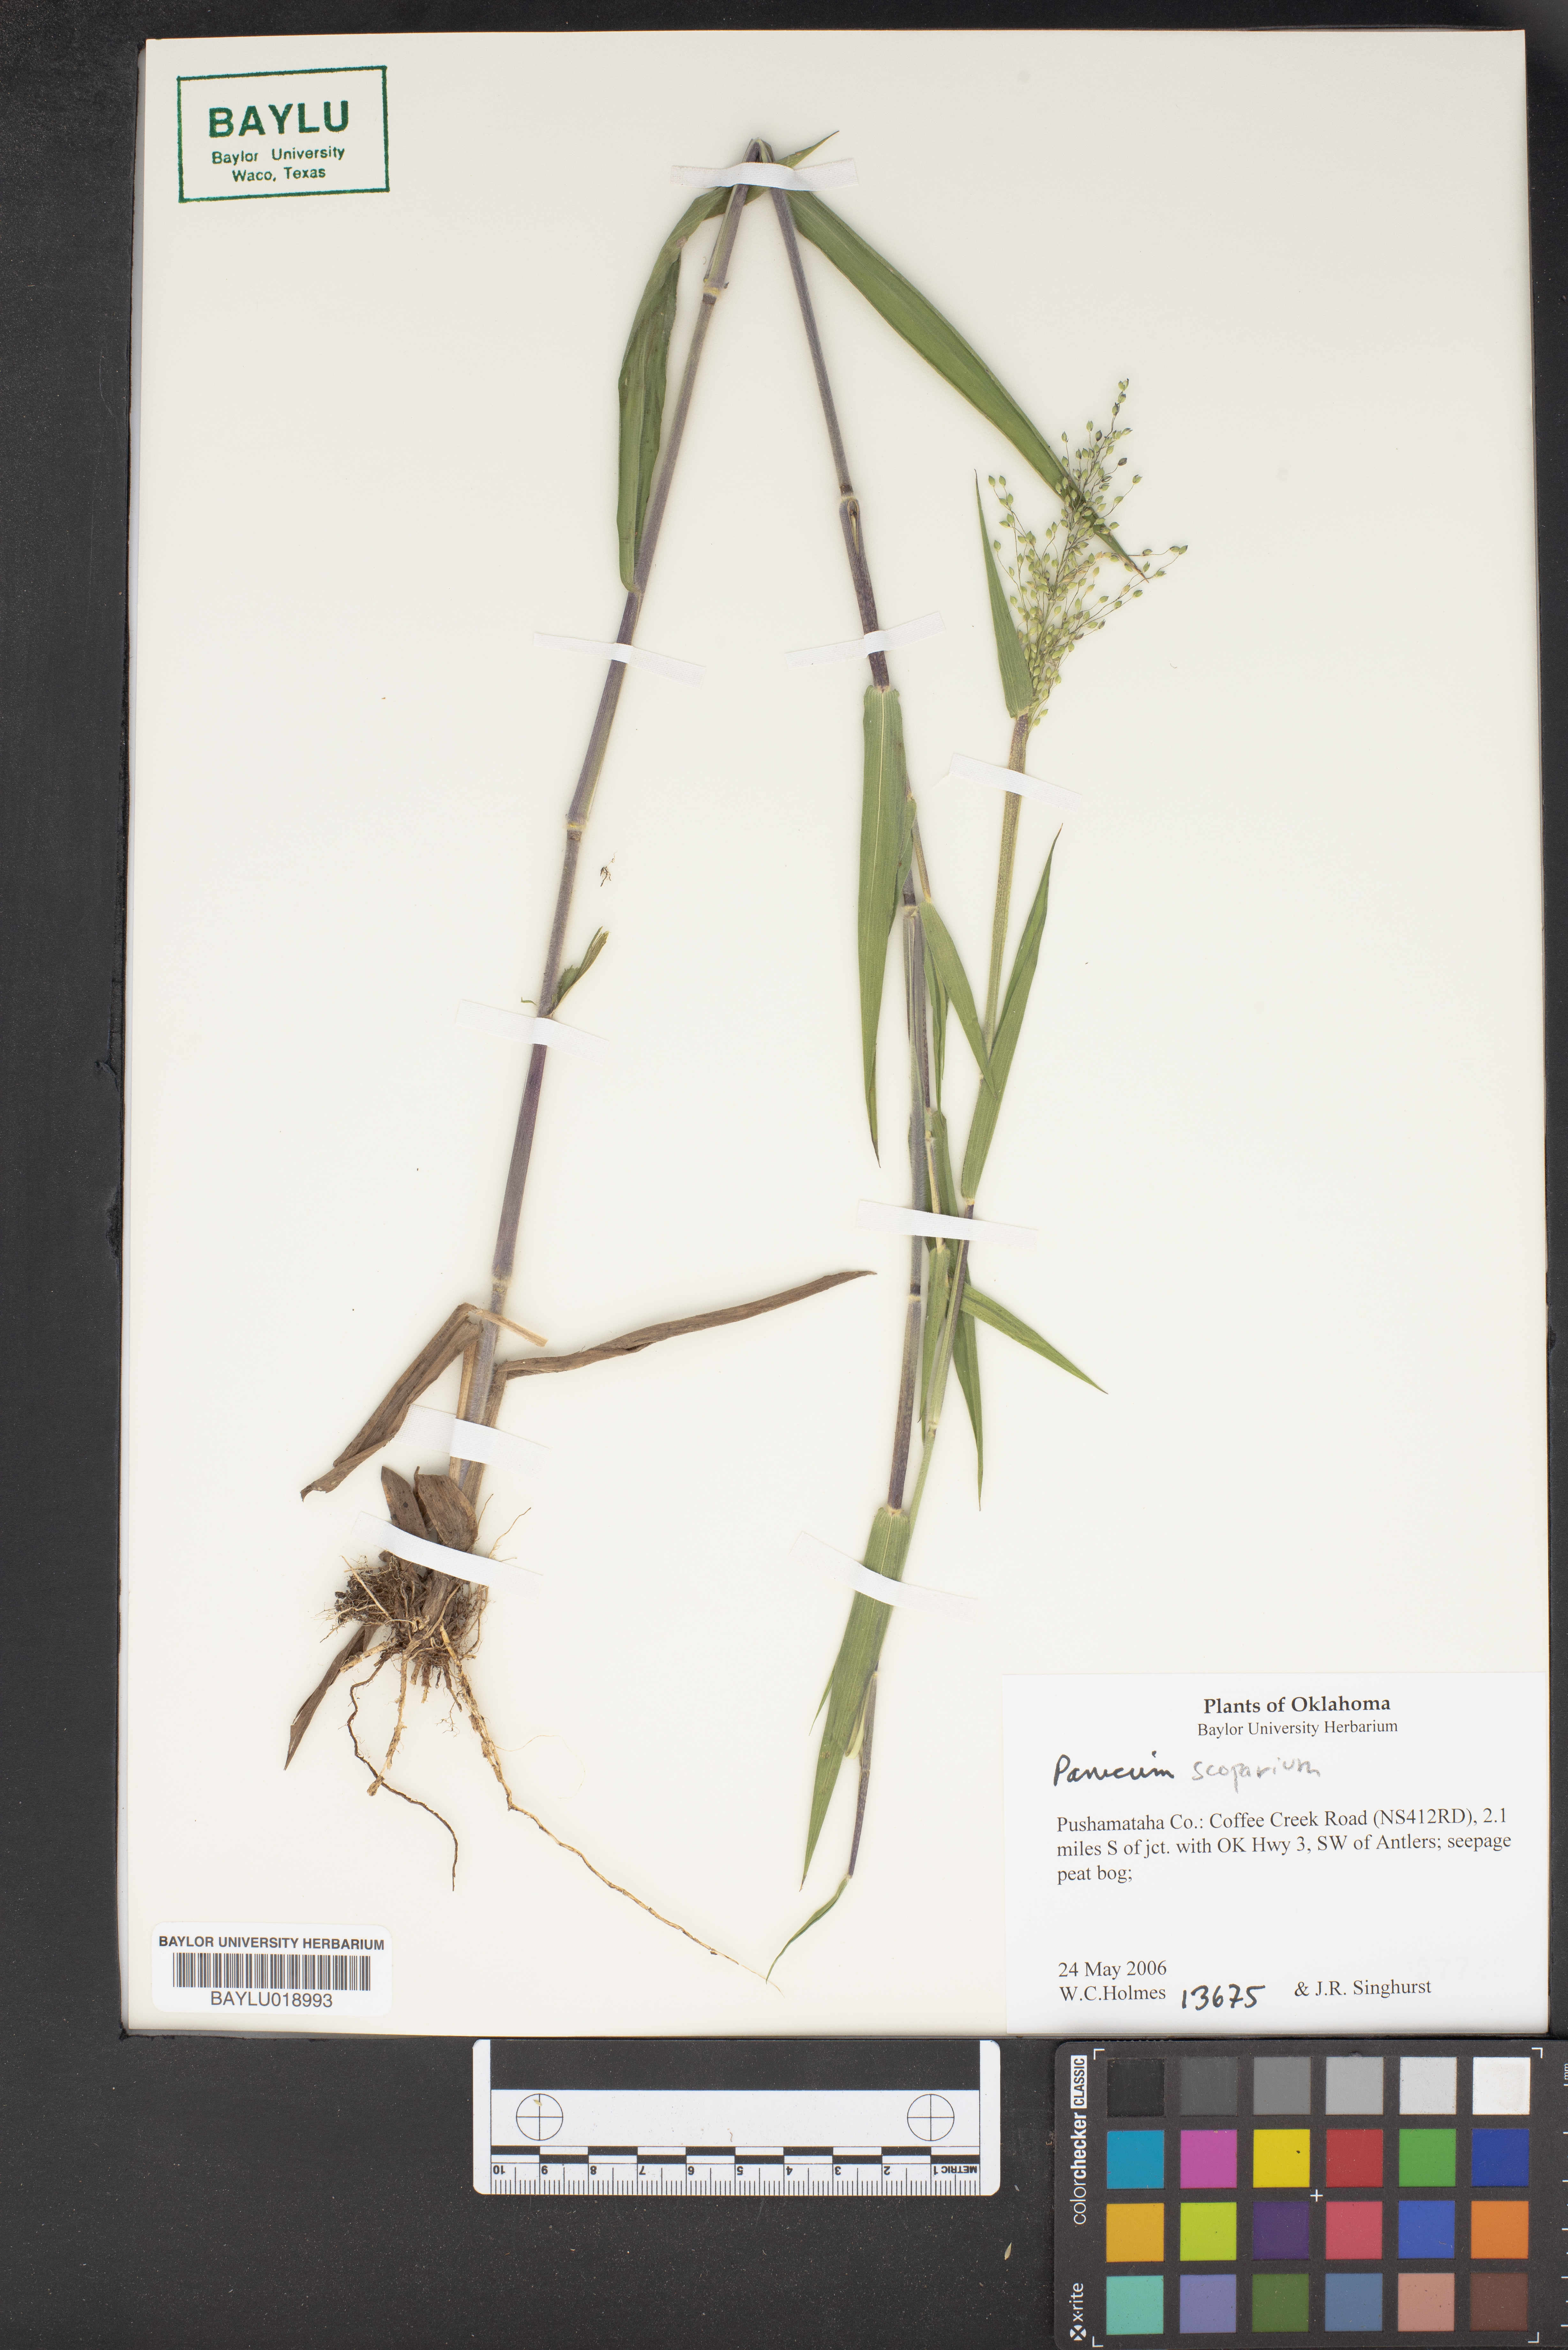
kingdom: Plantae
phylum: Tracheophyta
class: Liliopsida
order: Poales
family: Poaceae
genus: Dichanthelium
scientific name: Dichanthelium scribnerianum
